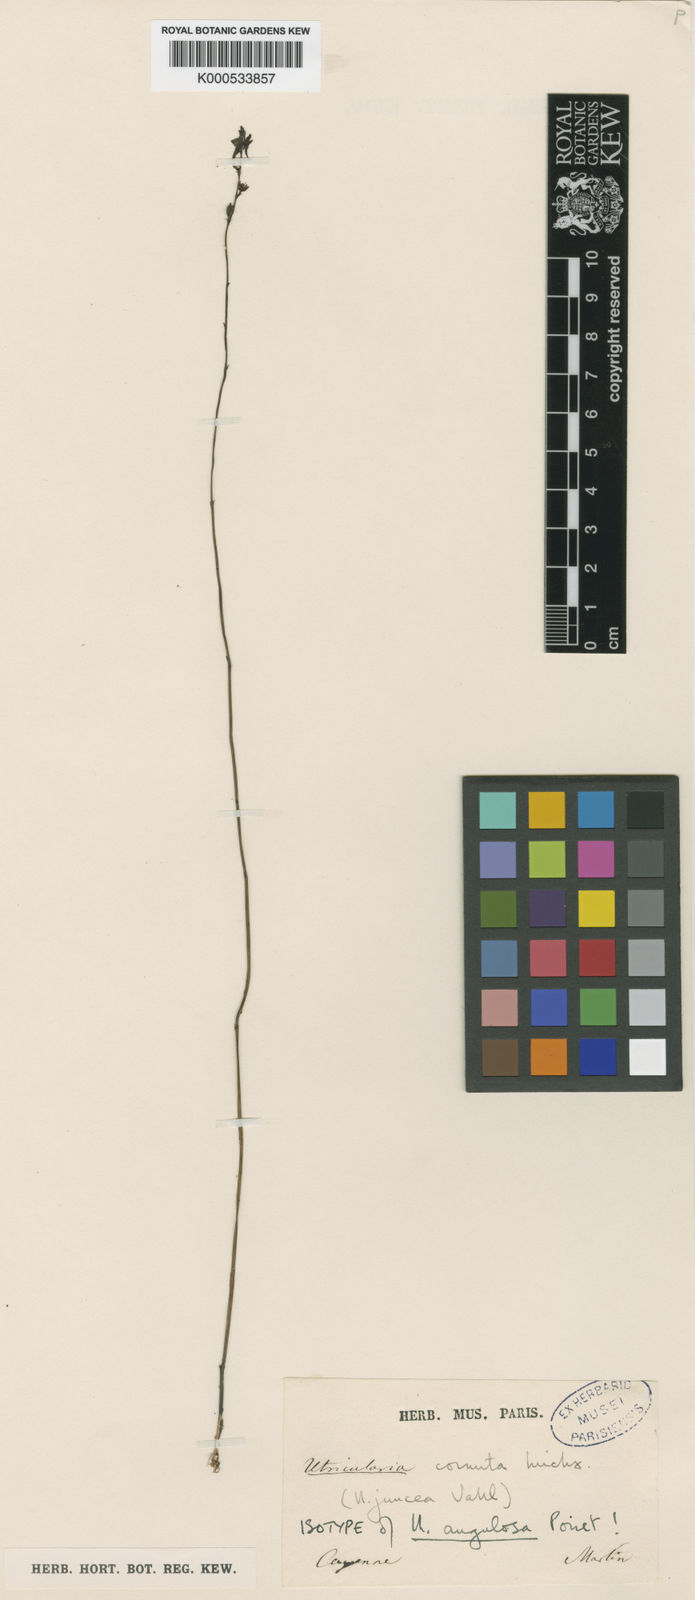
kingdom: Plantae
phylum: Tracheophyta
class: Magnoliopsida
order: Lamiales
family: Lentibulariaceae
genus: Utricularia
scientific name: Utricularia juncea
